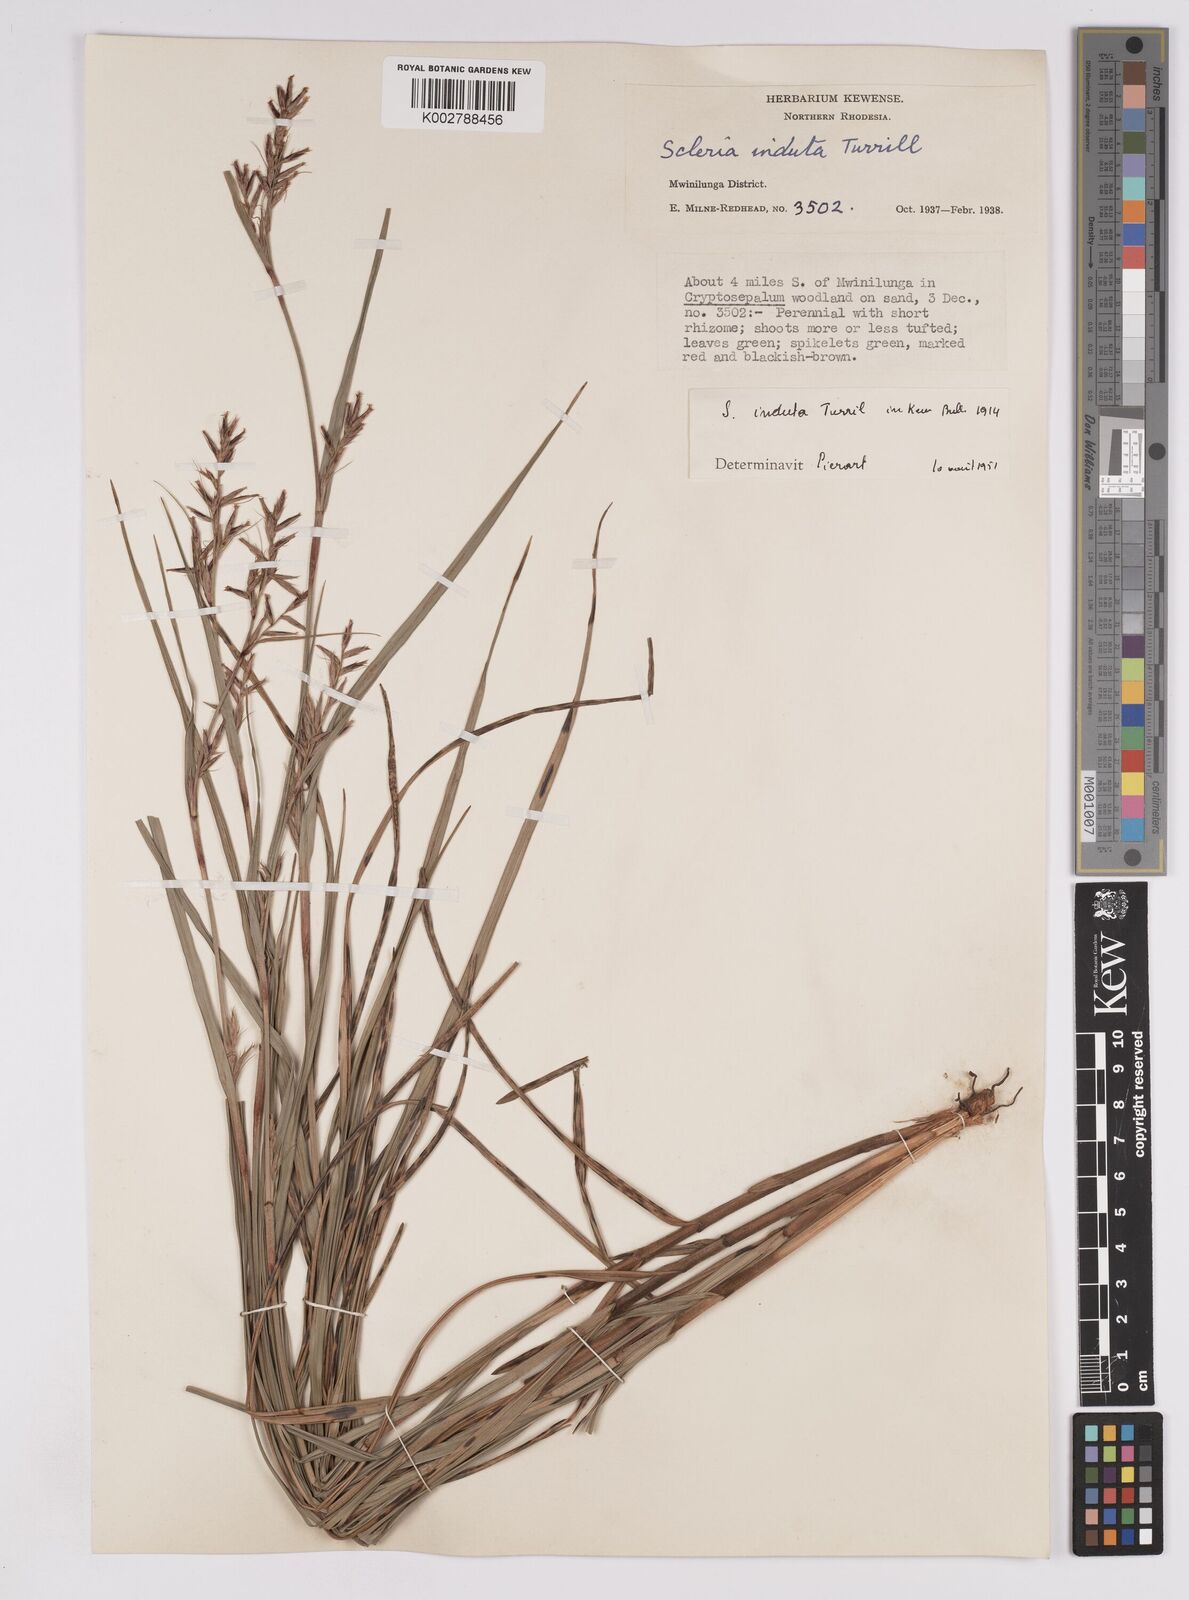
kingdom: Plantae
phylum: Tracheophyta
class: Liliopsida
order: Poales
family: Cyperaceae
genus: Scleria
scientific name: Scleria induta
